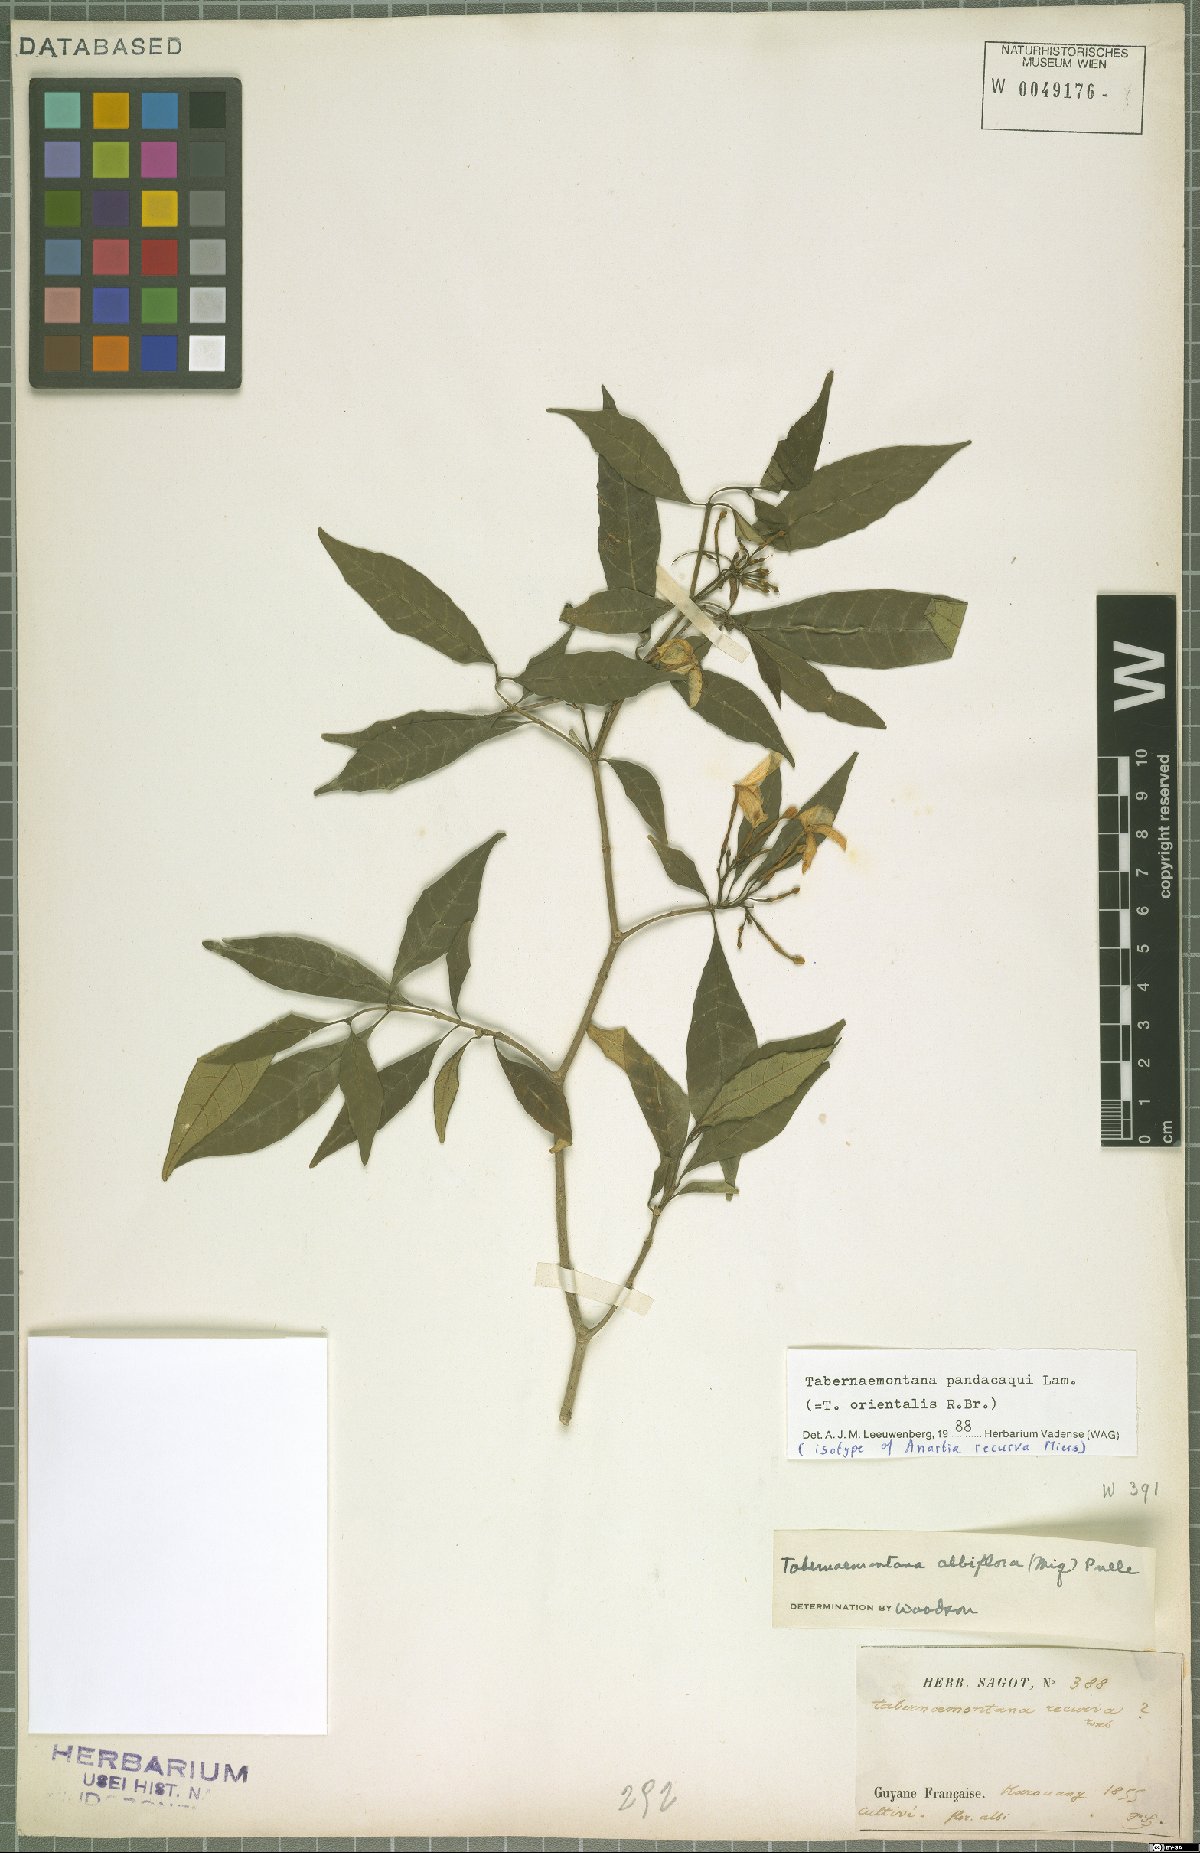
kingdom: Plantae
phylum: Tracheophyta
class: Magnoliopsida
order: Gentianales
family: Apocynaceae
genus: Tabernaemontana
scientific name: Tabernaemontana pandacaqui
